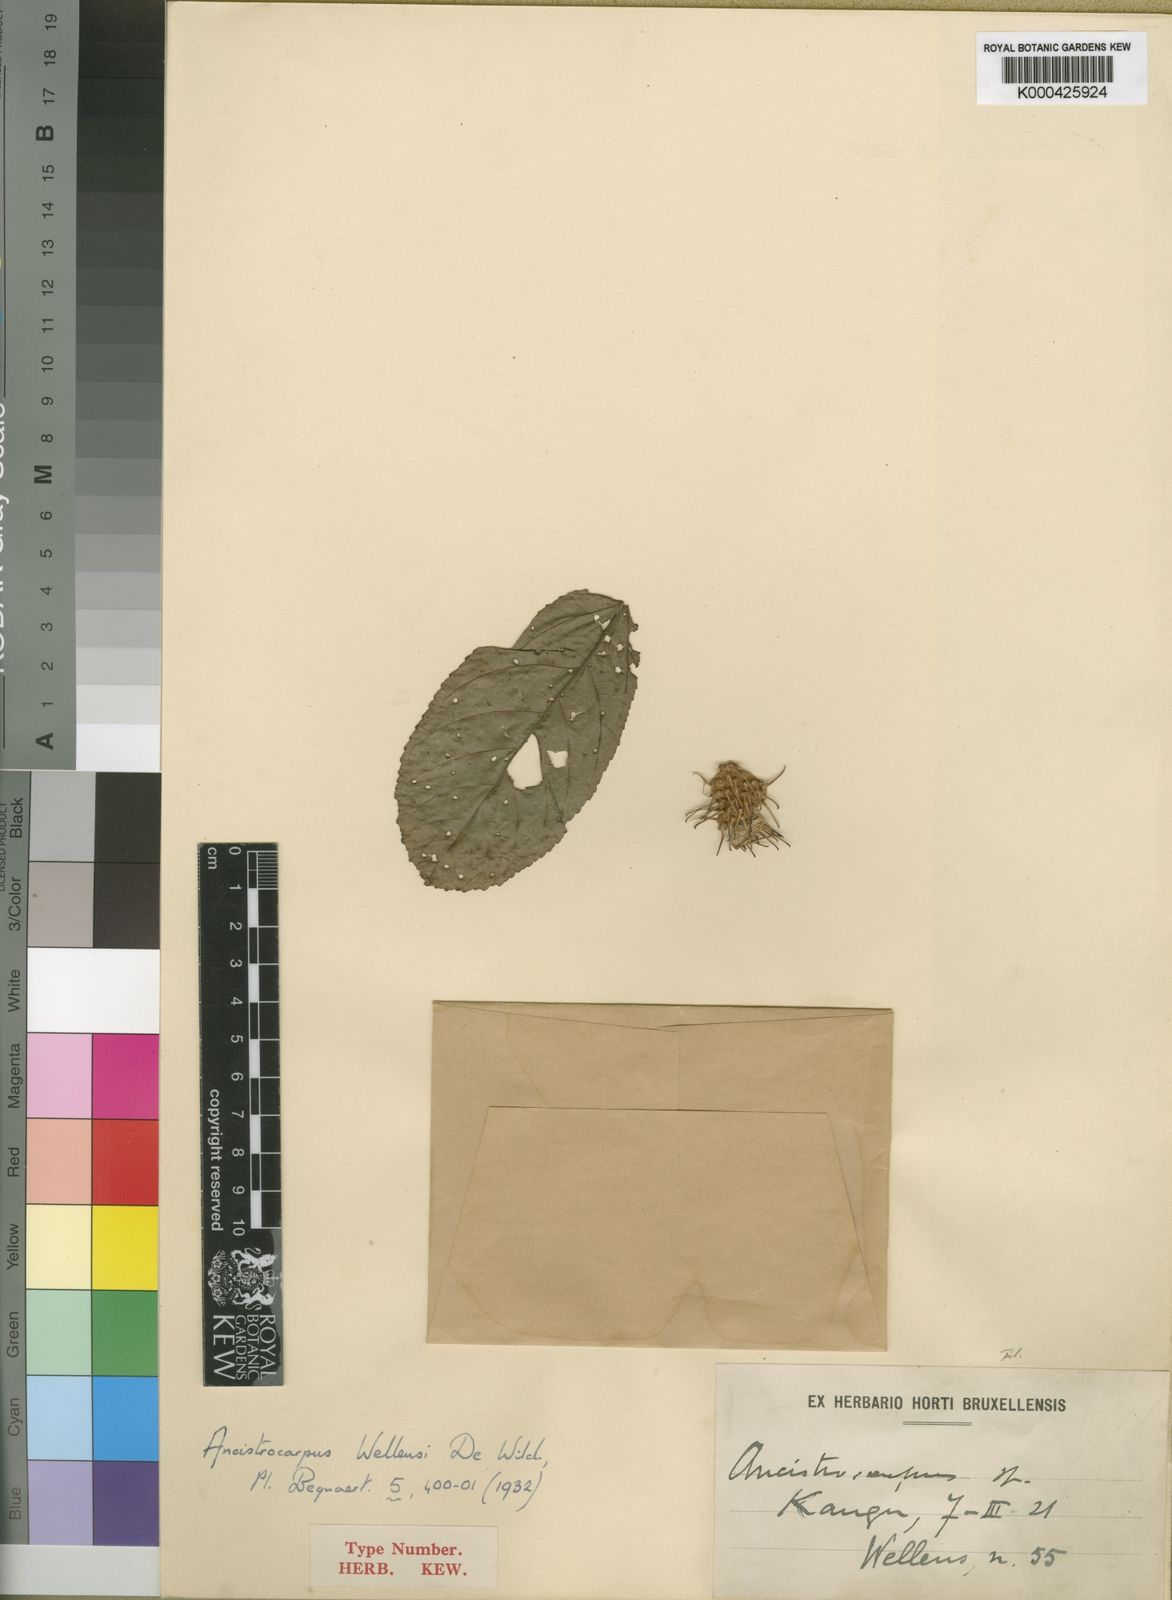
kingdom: Plantae
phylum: Tracheophyta
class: Magnoliopsida
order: Malvales
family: Malvaceae
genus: Ancistrocarpus
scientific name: Ancistrocarpus densispinosus
